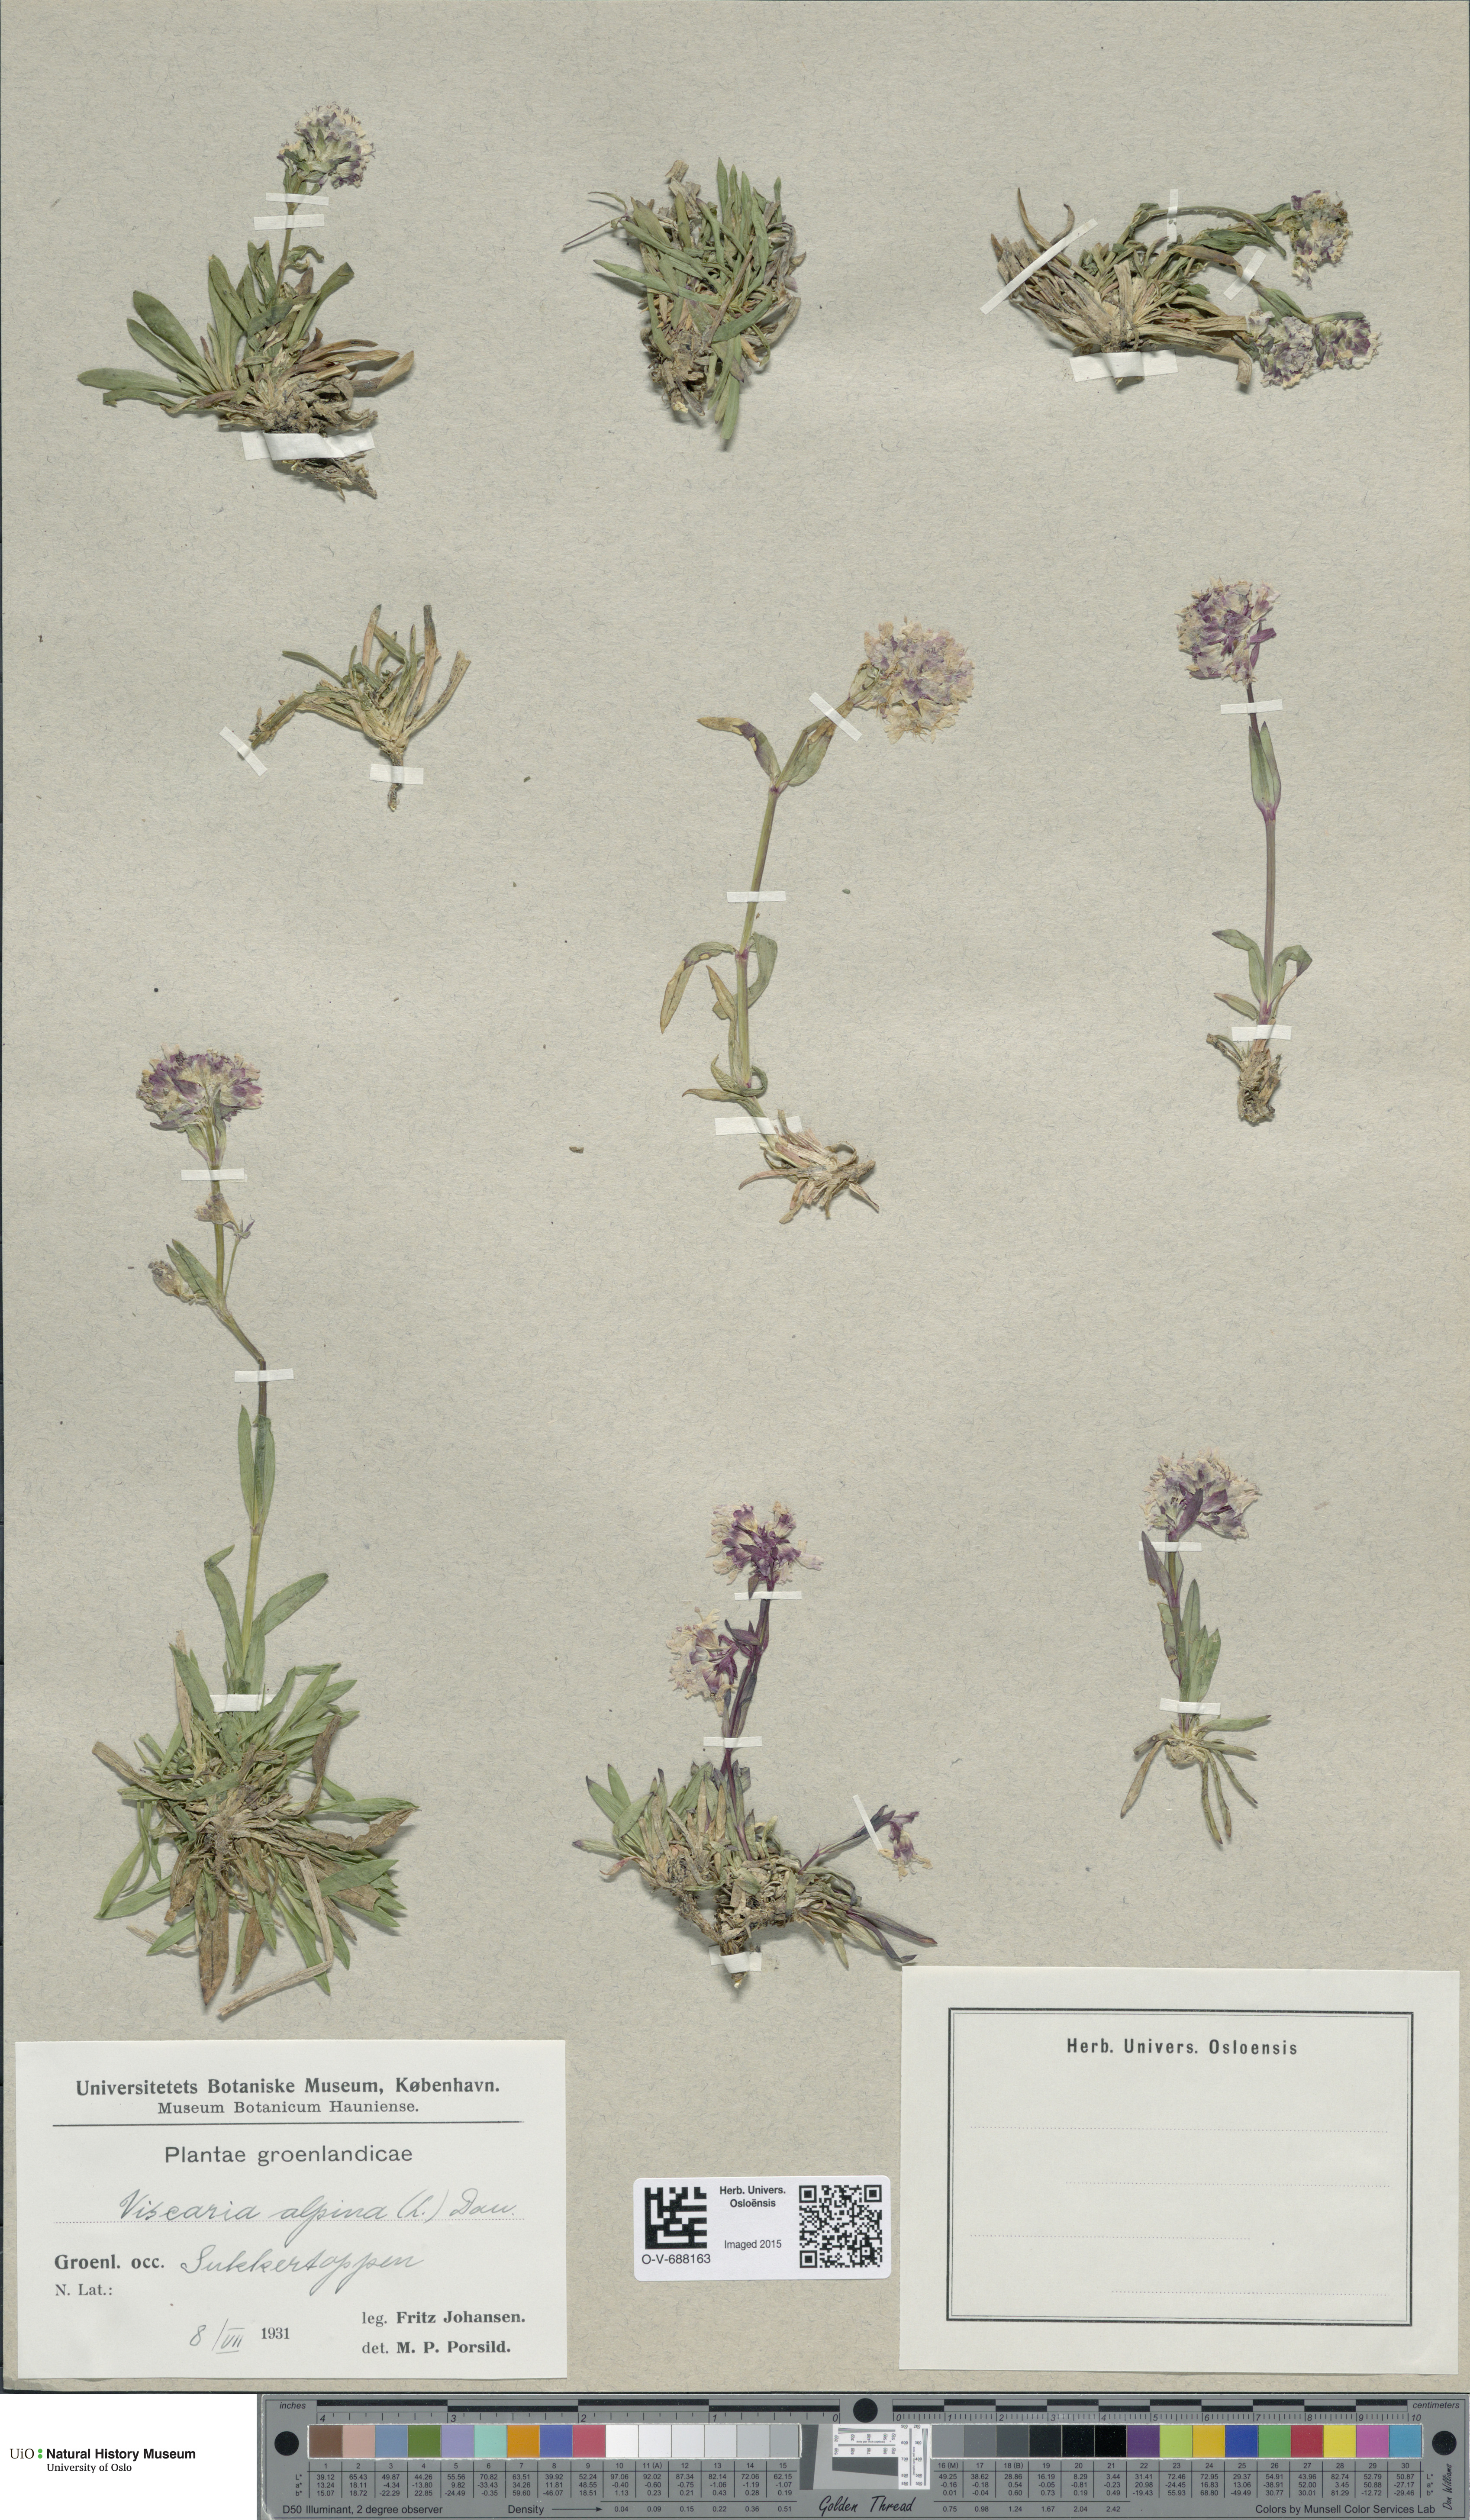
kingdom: Plantae
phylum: Tracheophyta
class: Magnoliopsida
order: Caryophyllales
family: Caryophyllaceae
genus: Viscaria
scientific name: Viscaria alpina
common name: Alpine campion
